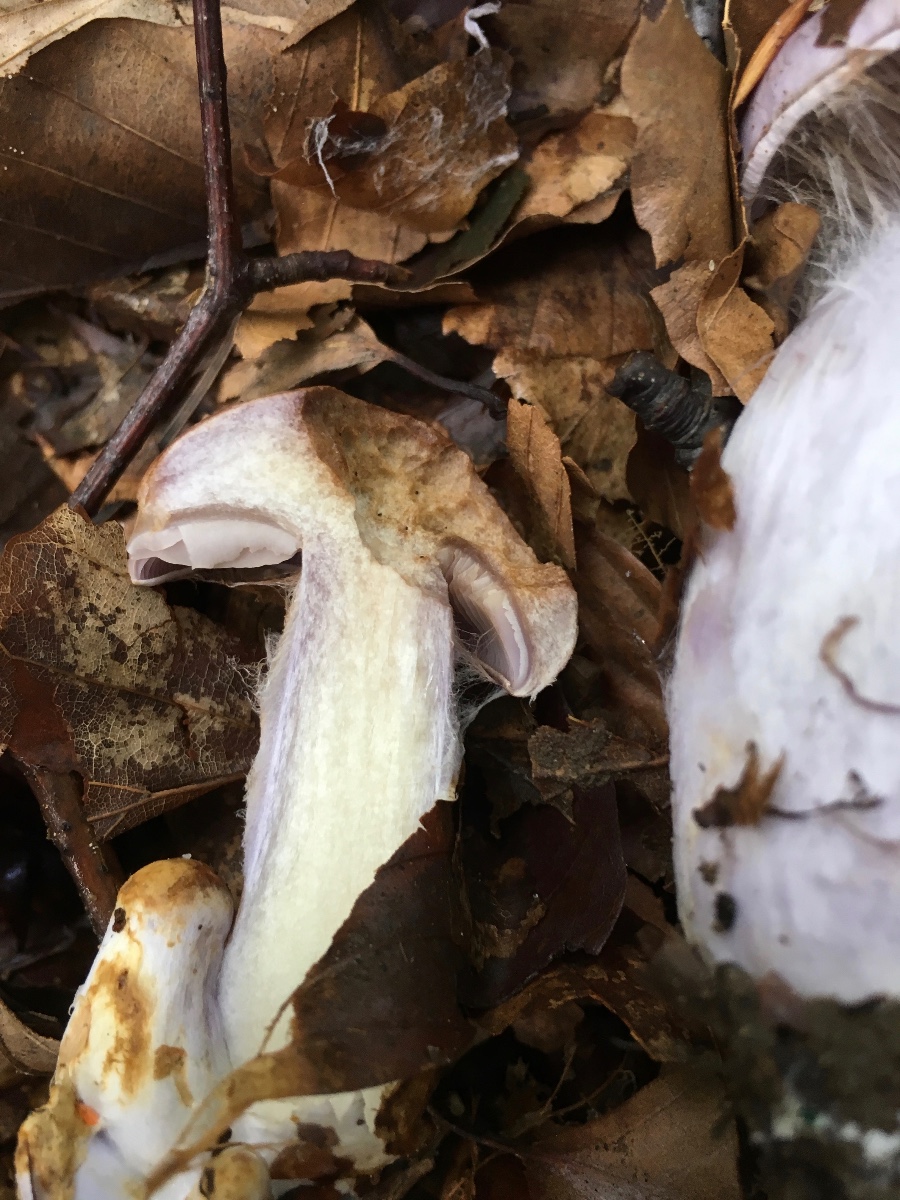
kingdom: Fungi
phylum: Basidiomycota
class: Agaricomycetes
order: Agaricales
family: Cortinariaceae
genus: Cortinarius
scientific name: Cortinarius largus
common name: violetrandet slørhat
